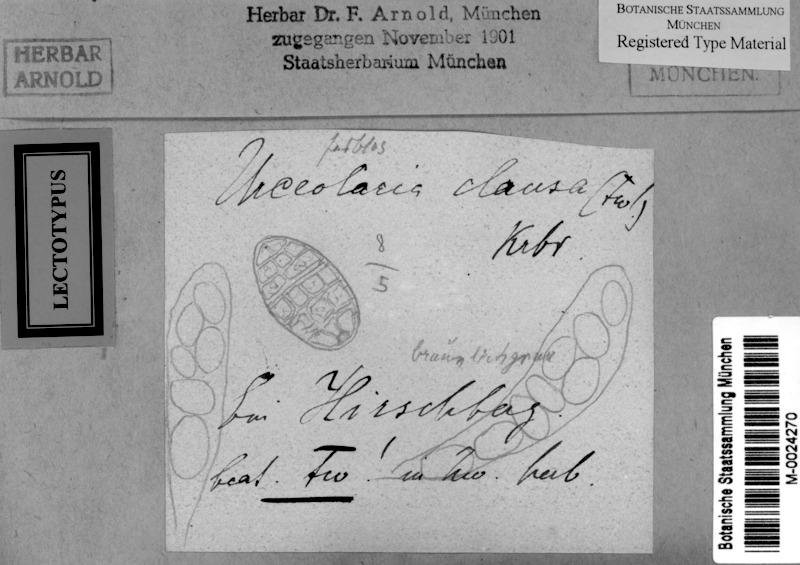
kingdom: Fungi
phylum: Ascomycota
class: Lecanoromycetes
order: Ostropales
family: Graphidaceae
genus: Diploschistes
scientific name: Diploschistes euganeus
